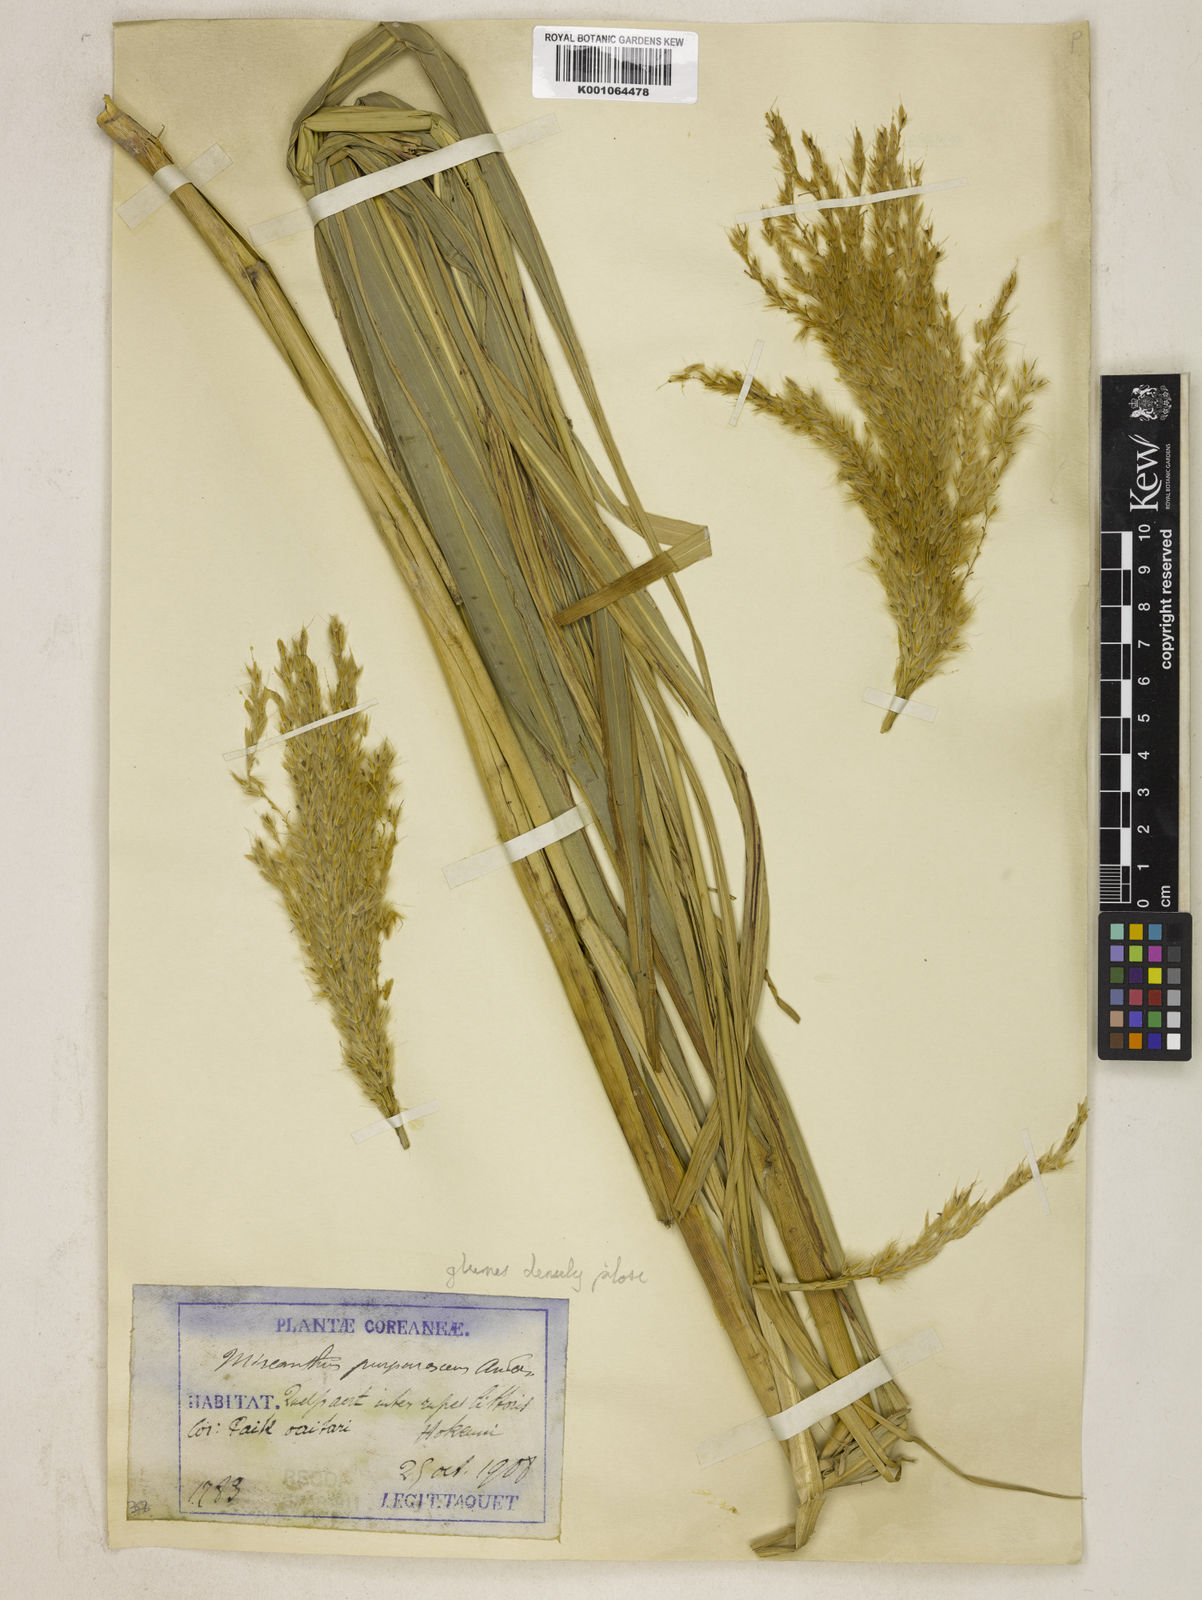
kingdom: Plantae
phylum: Tracheophyta
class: Liliopsida
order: Poales
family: Poaceae
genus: Miscanthus
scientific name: Miscanthus sinensis
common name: Chinese silvergrass
